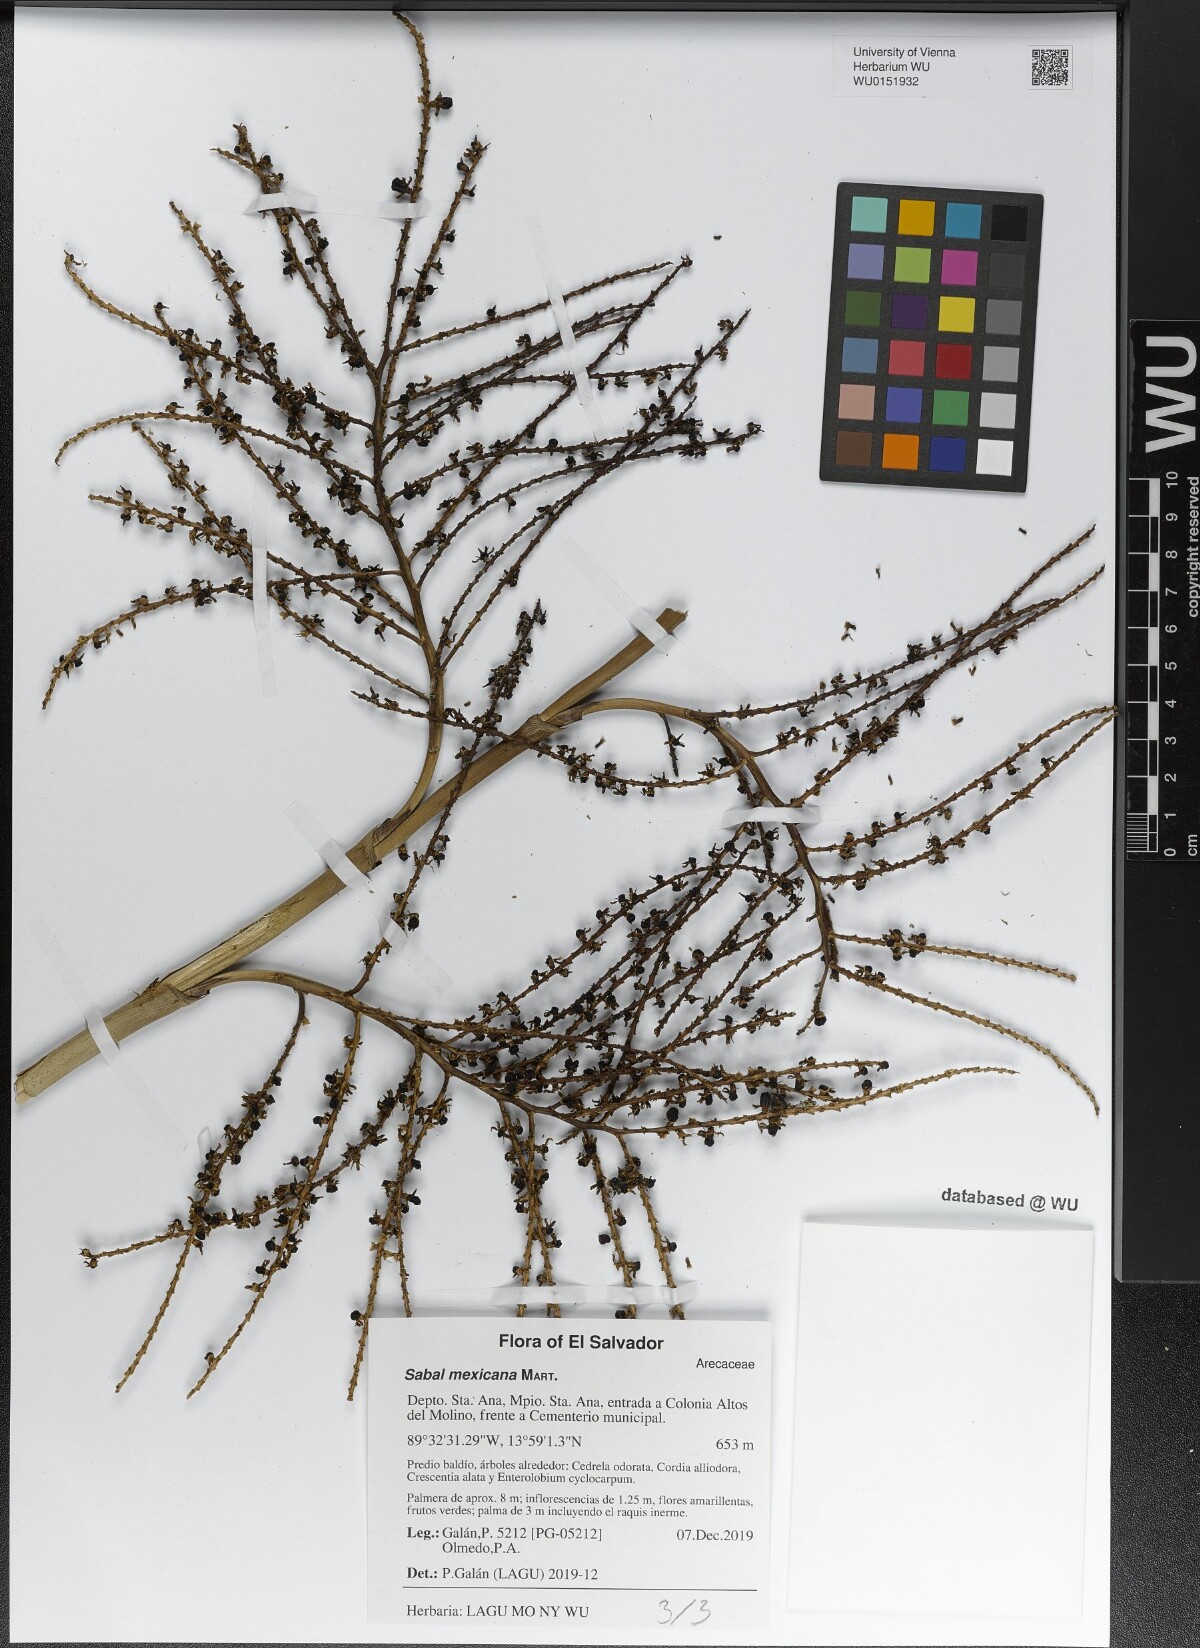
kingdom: Plantae
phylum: Tracheophyta
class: Liliopsida
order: Arecales
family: Arecaceae
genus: Sabal
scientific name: Sabal mexicana
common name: Texas palmetto
